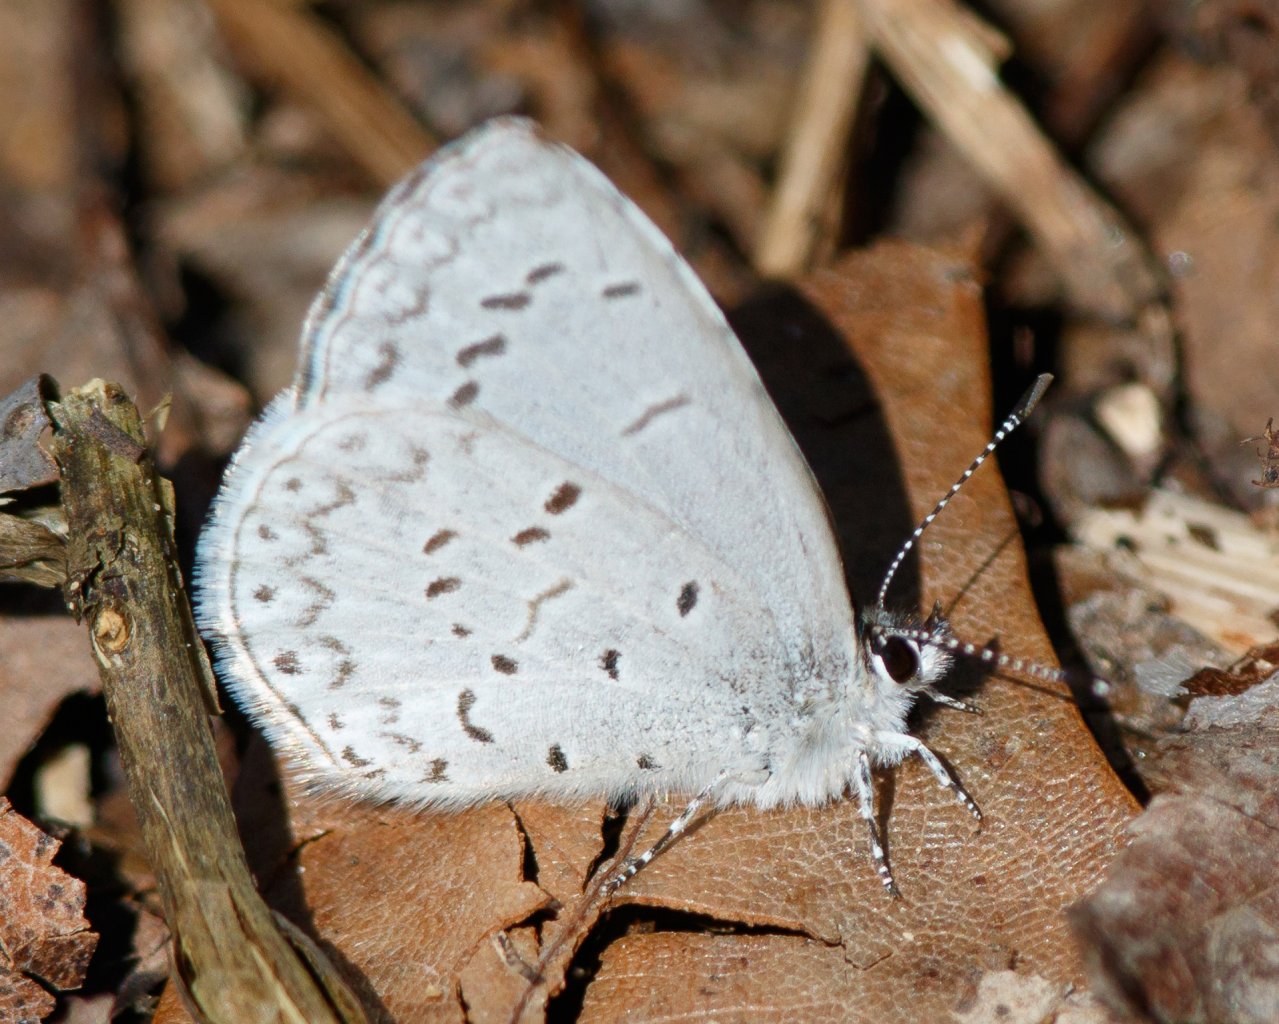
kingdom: Animalia
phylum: Arthropoda
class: Insecta
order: Lepidoptera
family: Lycaenidae
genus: Celastrina
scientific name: Celastrina ladon
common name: Spring Azure
